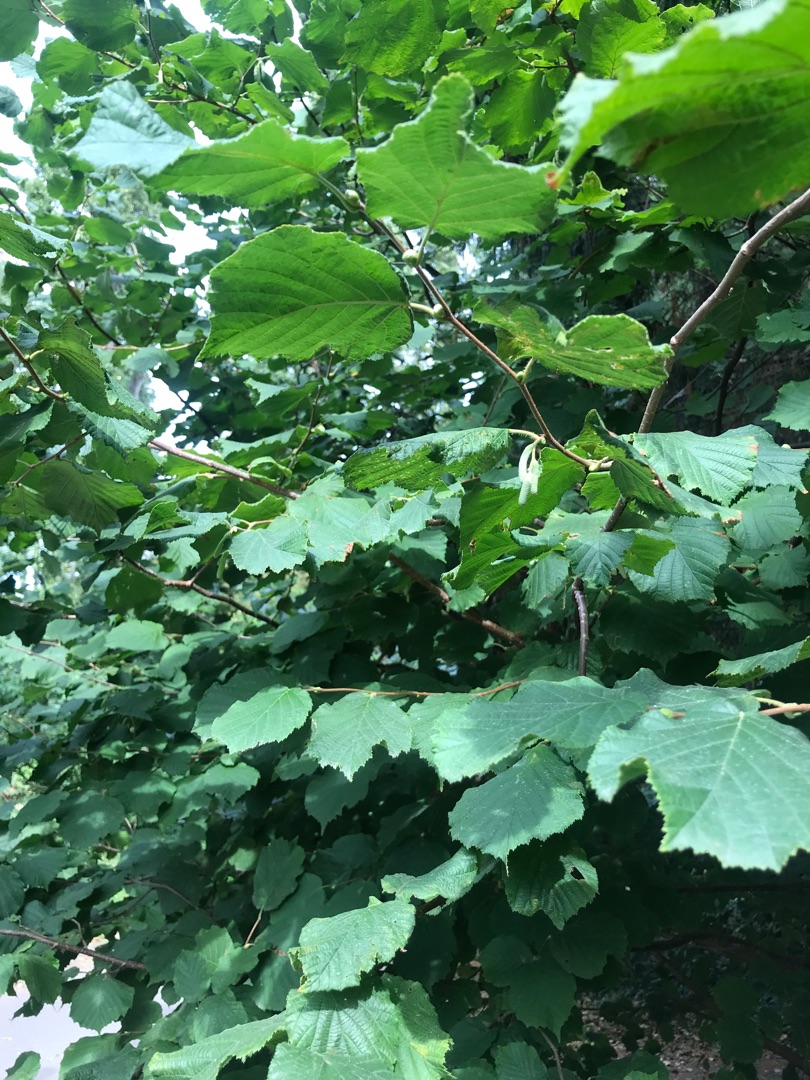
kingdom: Plantae
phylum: Tracheophyta
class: Magnoliopsida
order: Fagales
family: Betulaceae
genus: Corylus
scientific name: Corylus avellana
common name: Hassel
